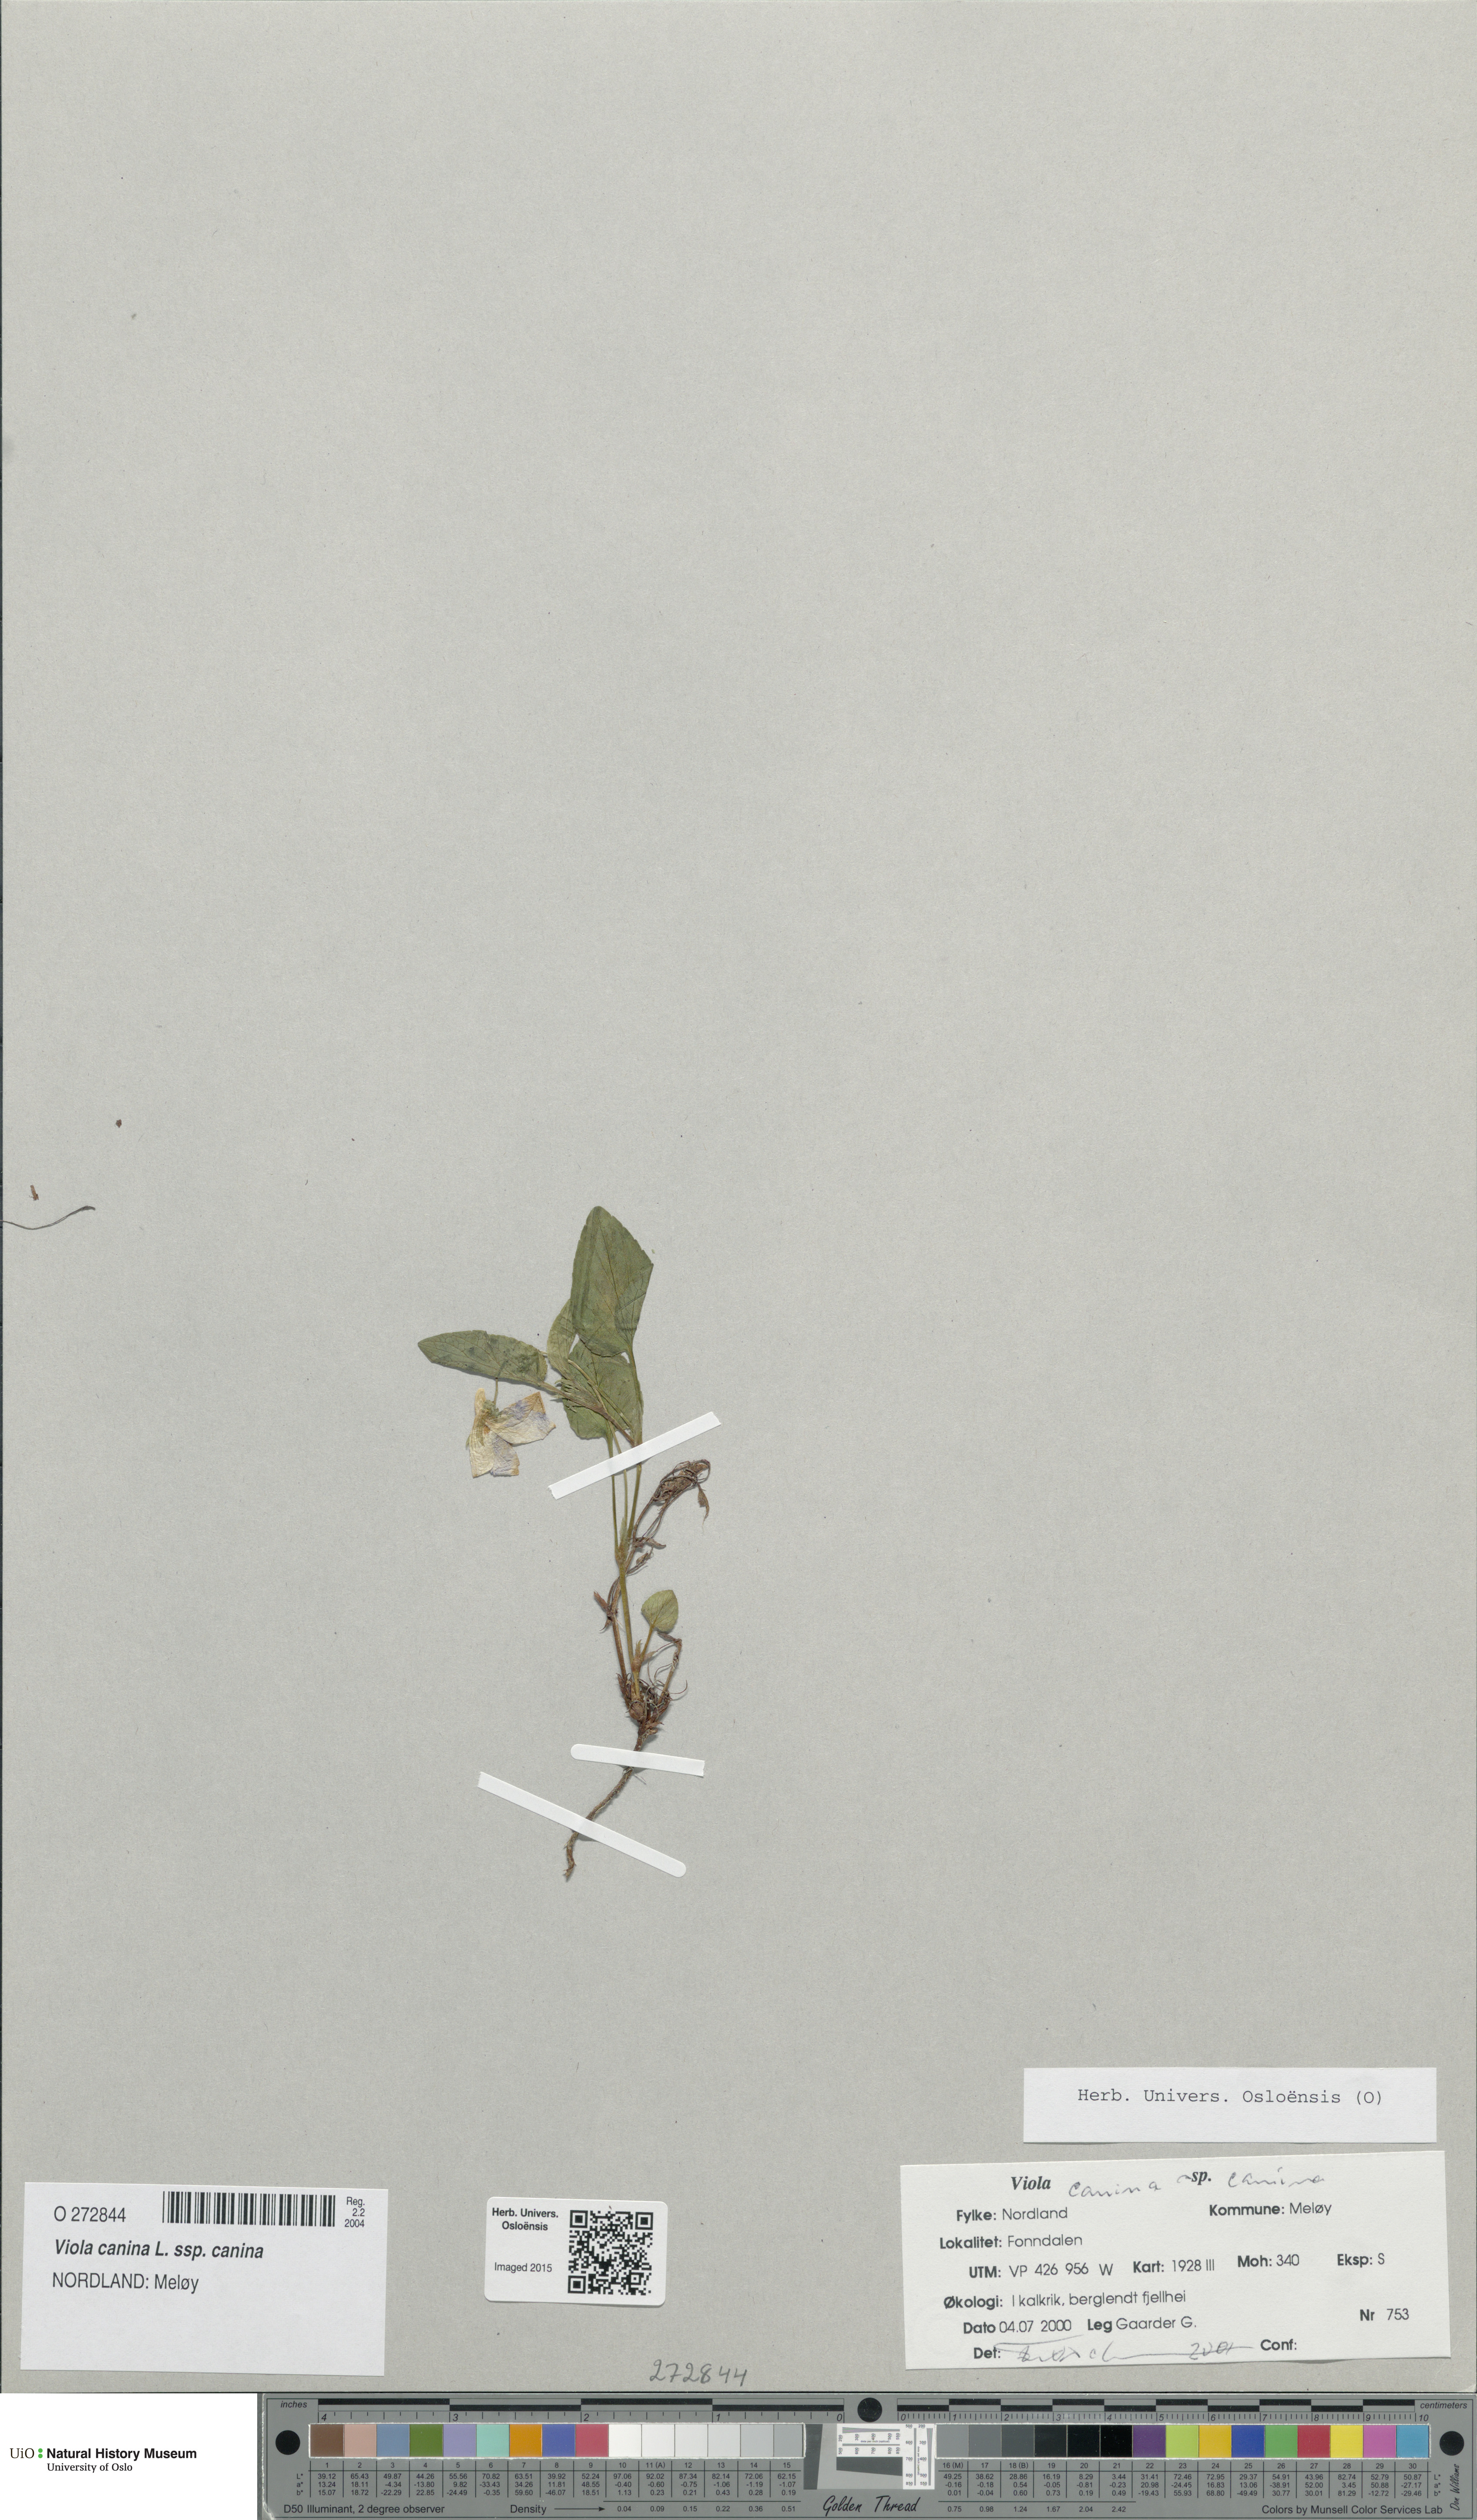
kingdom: Plantae
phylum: Tracheophyta
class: Magnoliopsida
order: Malpighiales
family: Violaceae
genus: Viola
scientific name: Viola canina
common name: Heath dog-violet
